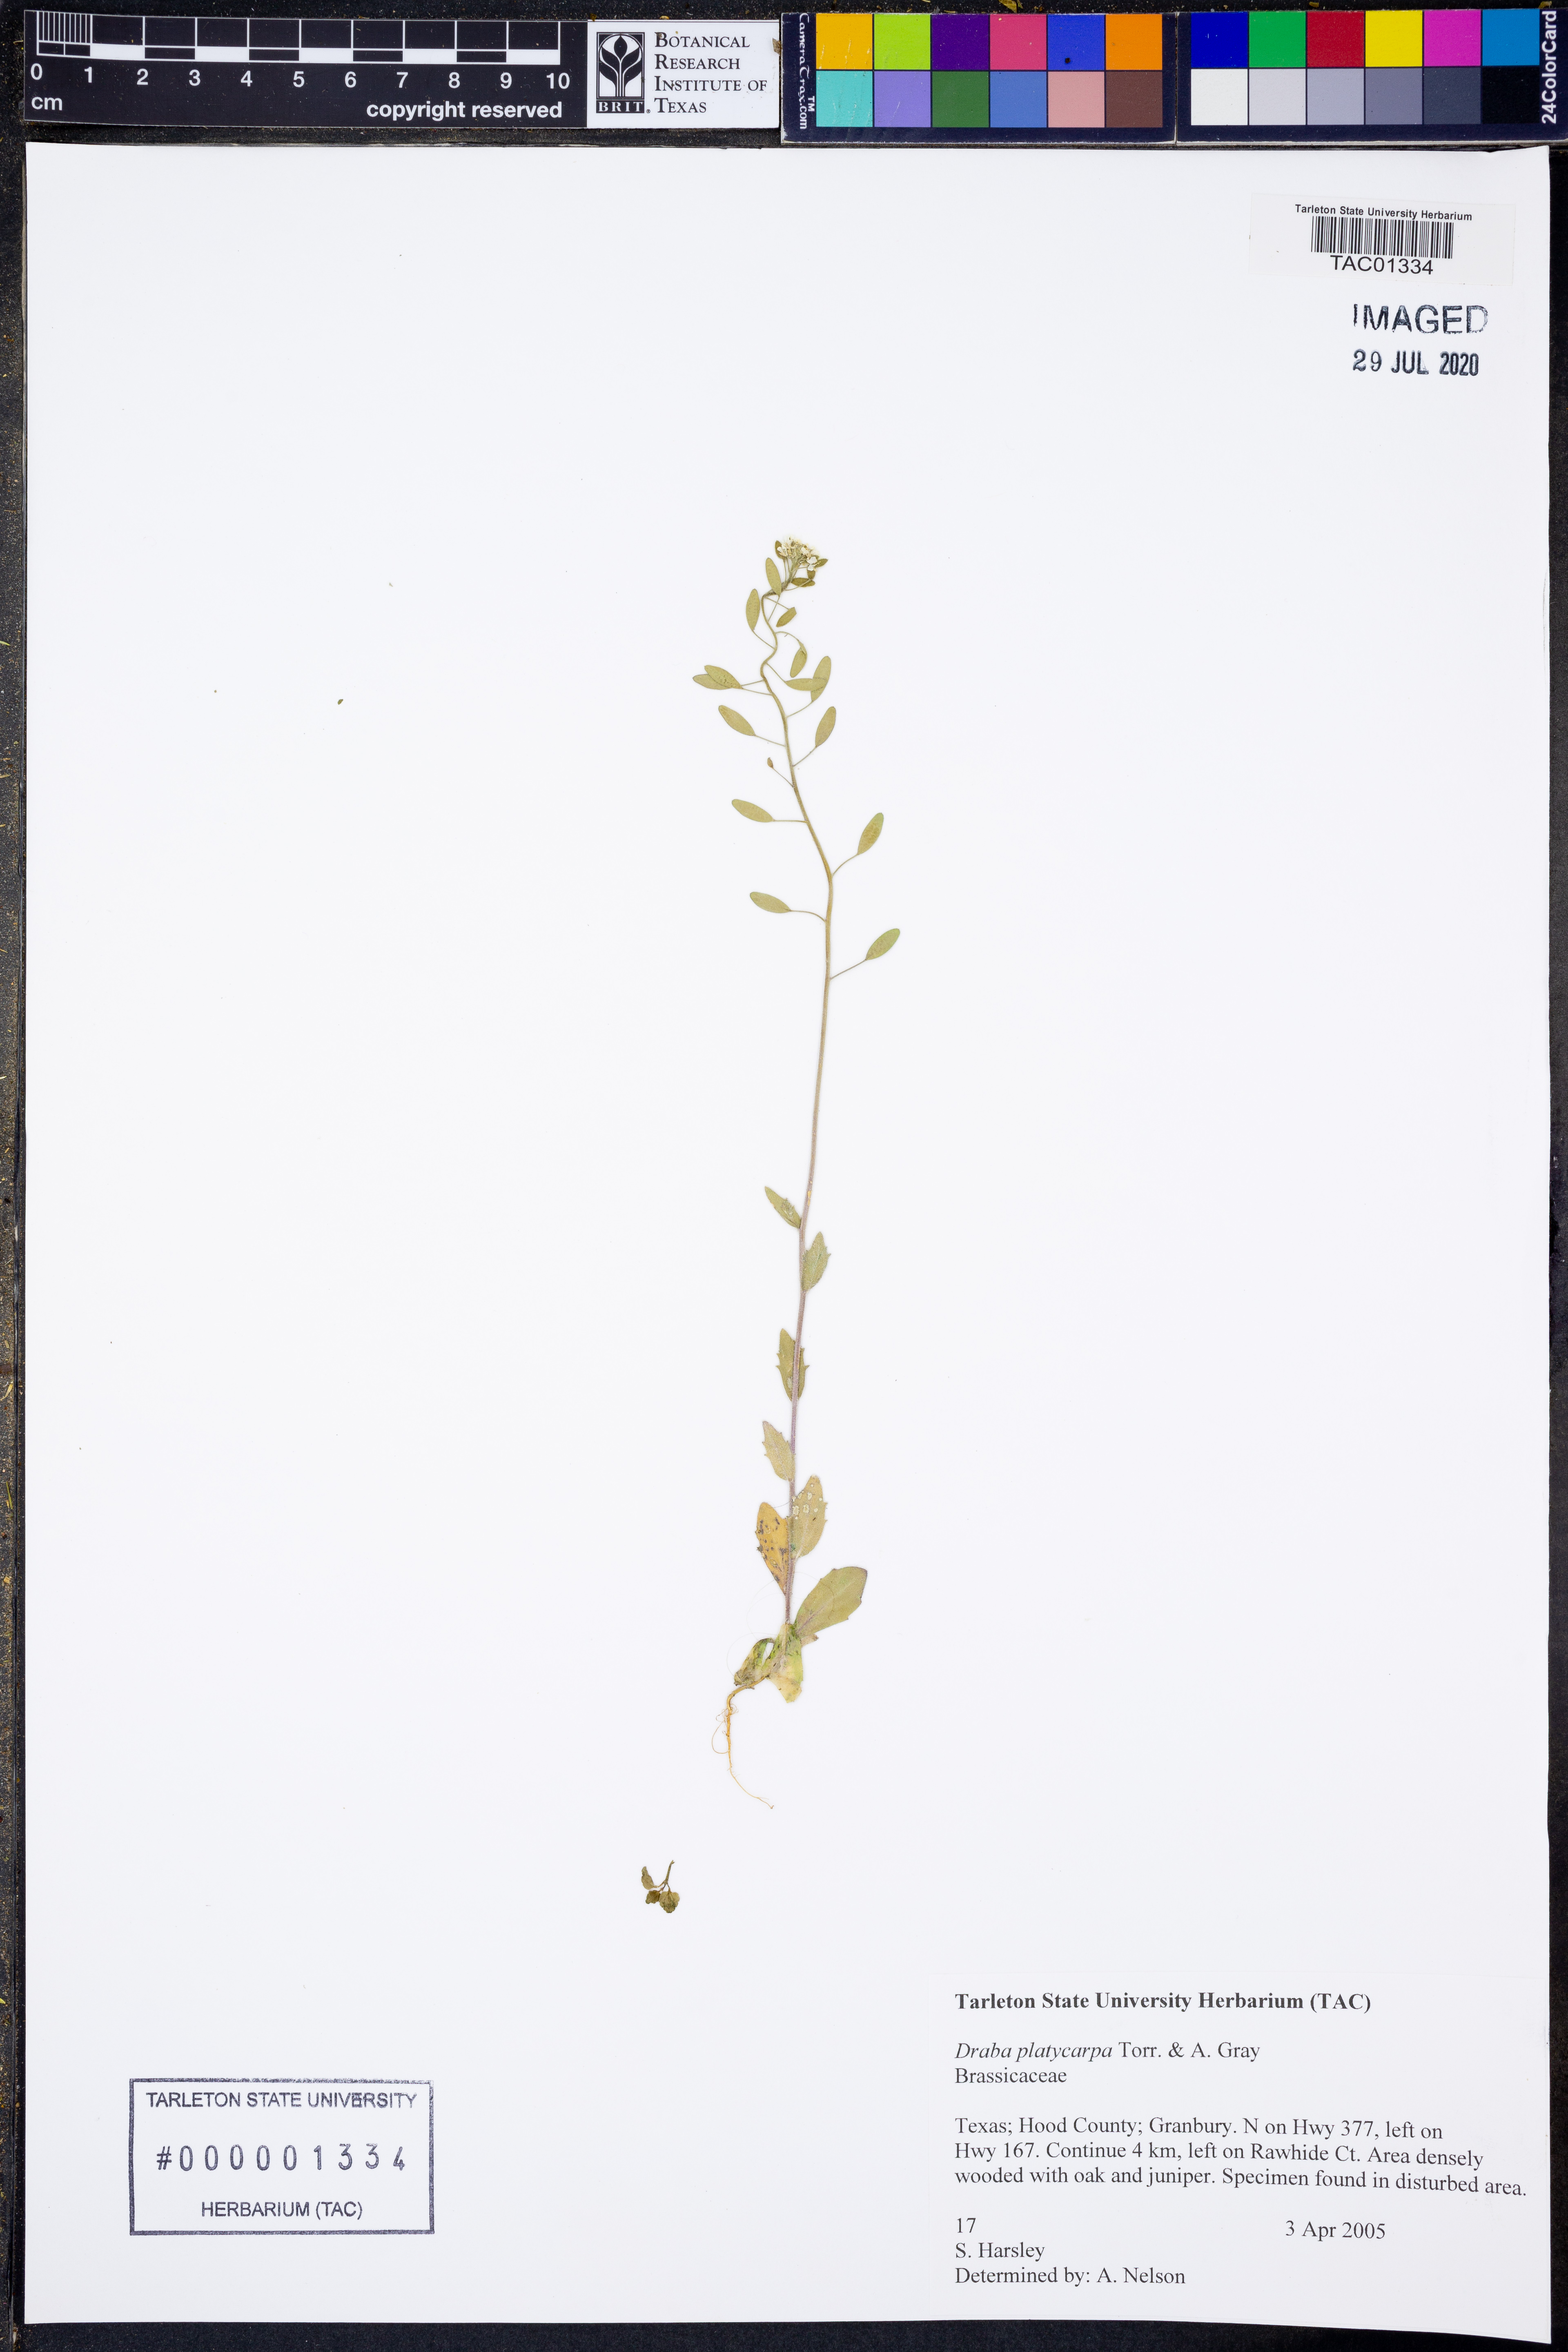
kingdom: Plantae
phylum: Tracheophyta
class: Magnoliopsida
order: Brassicales
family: Brassicaceae
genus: Tomostima
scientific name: Tomostima platycarpa
